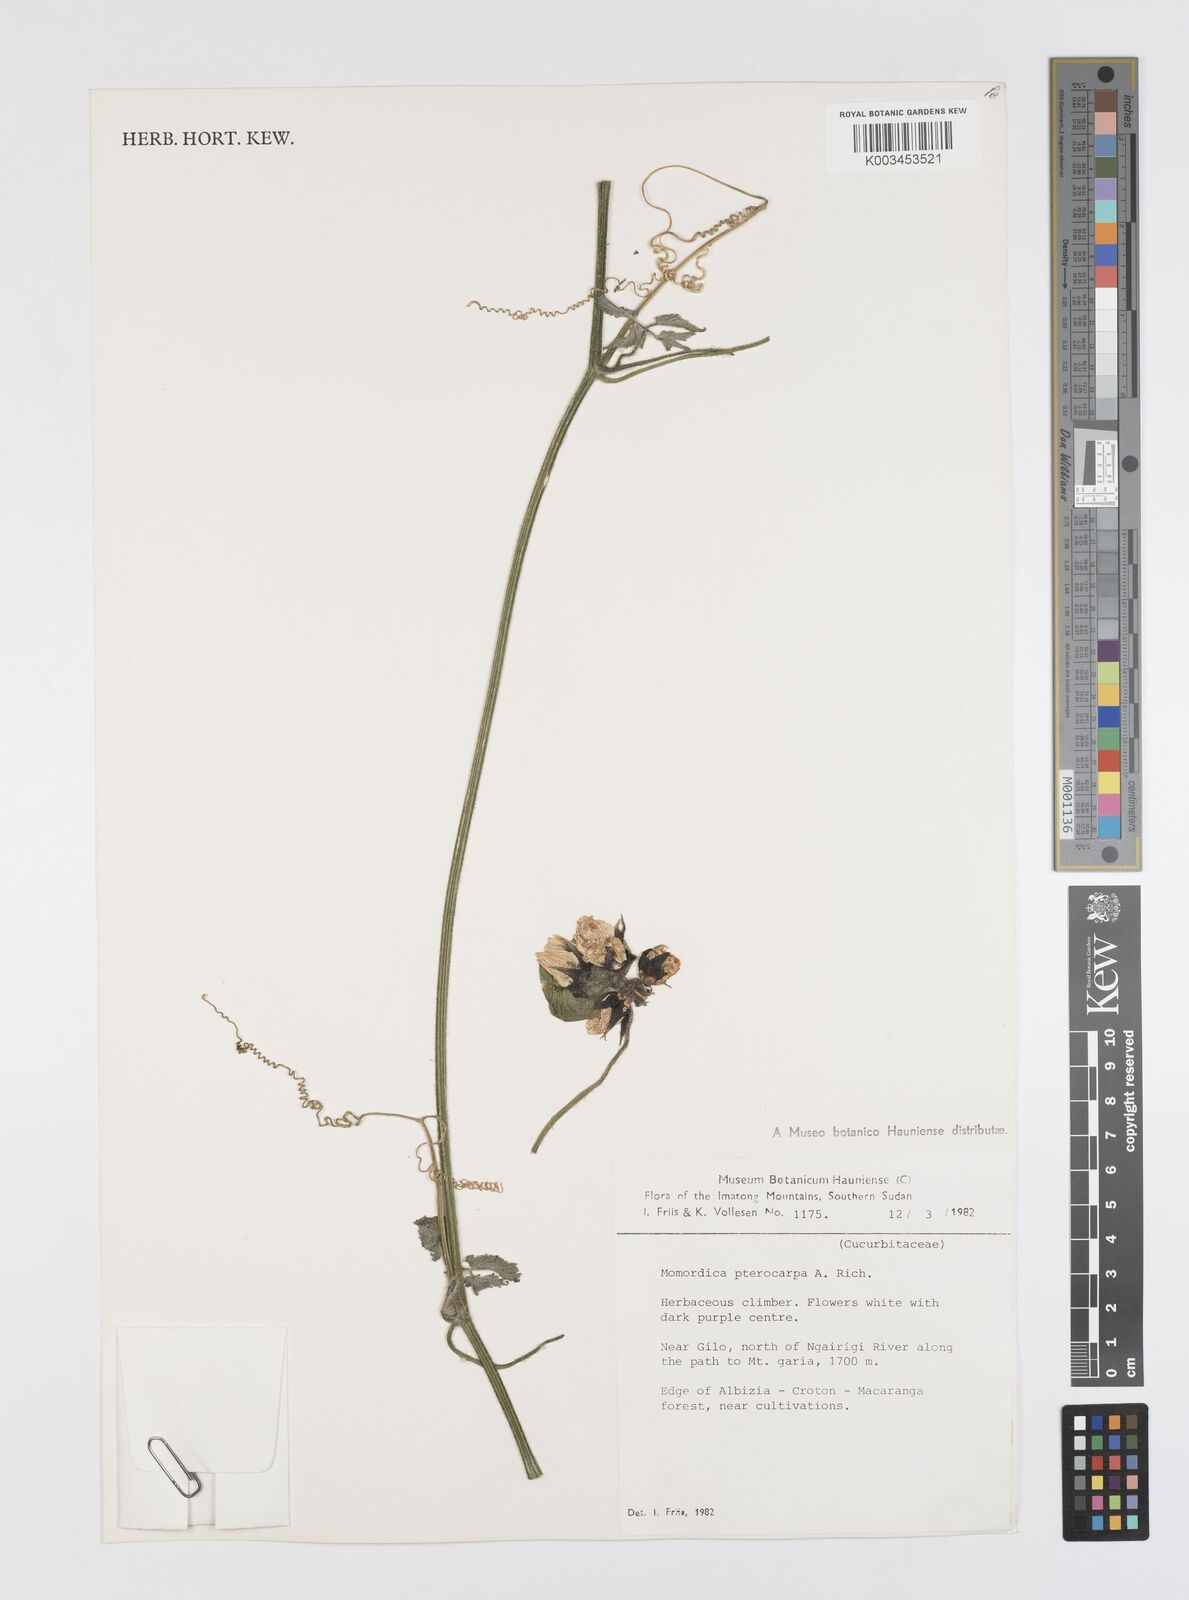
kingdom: Plantae
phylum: Tracheophyta
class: Magnoliopsida
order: Cucurbitales
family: Cucurbitaceae
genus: Momordica
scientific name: Momordica pterocarpa
